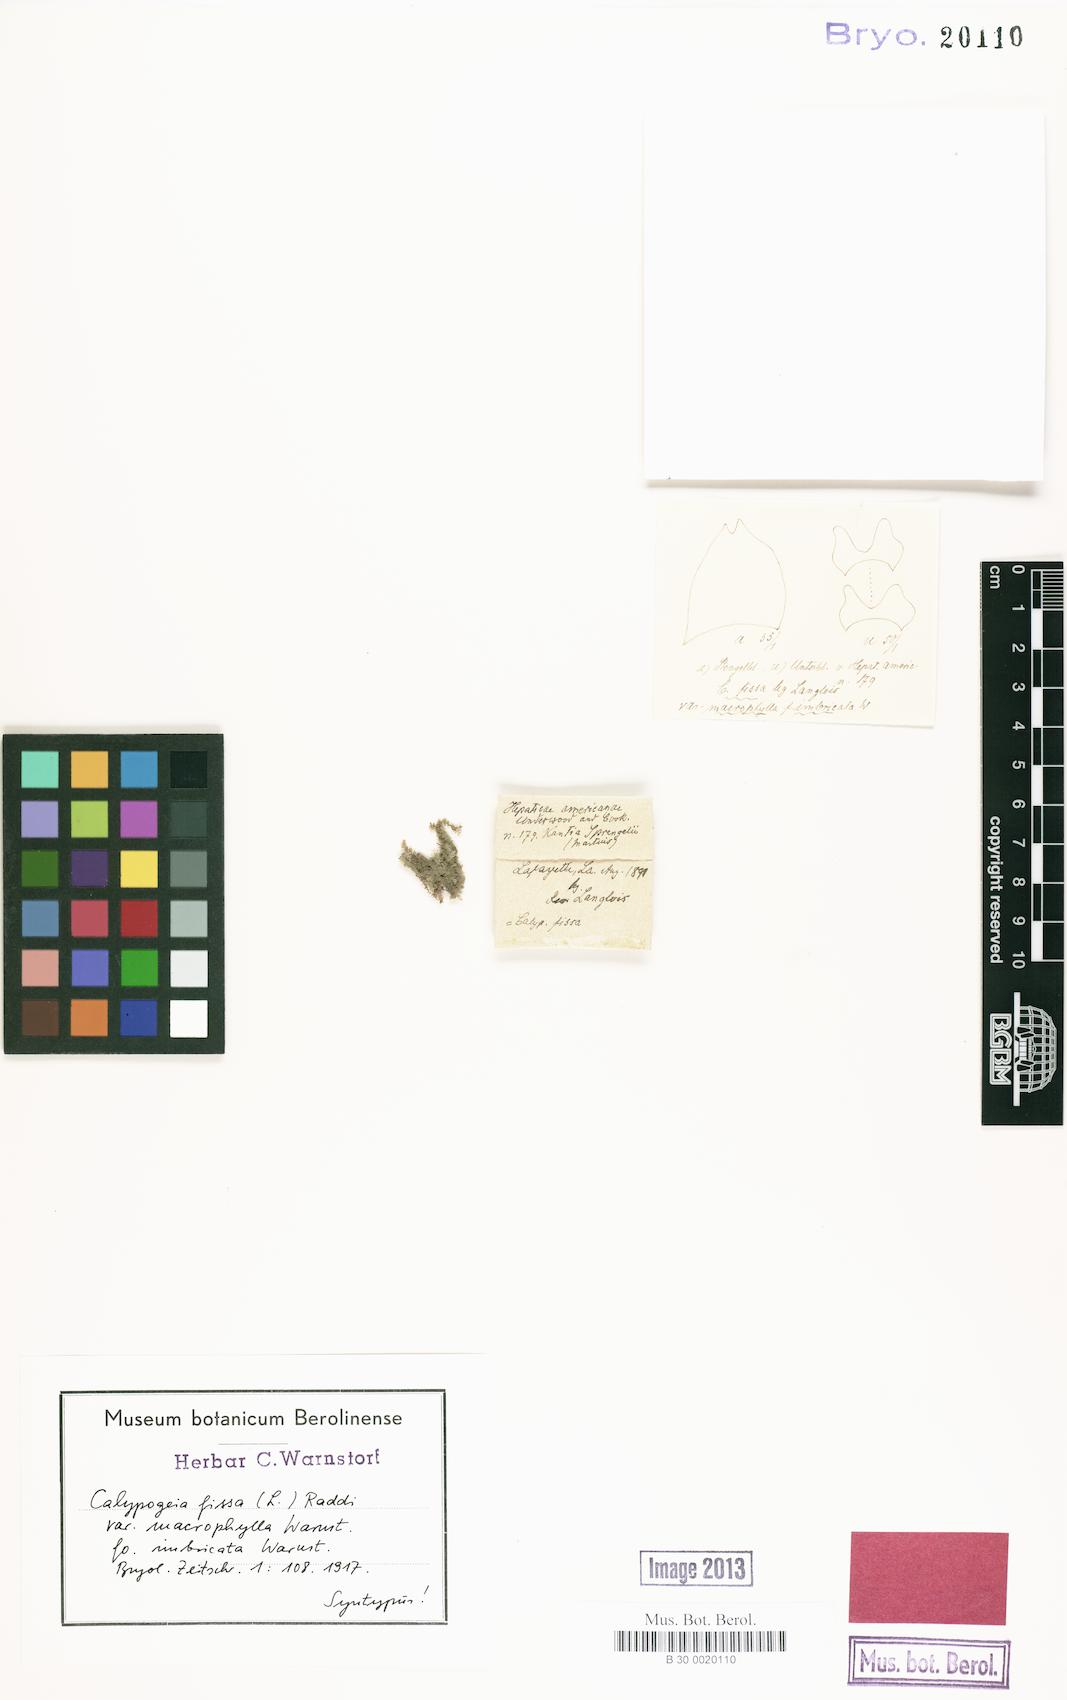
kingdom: Plantae
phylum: Marchantiophyta
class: Jungermanniopsida
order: Jungermanniales
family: Calypogeiaceae
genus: Calypogeia
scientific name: Calypogeia fissa
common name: Common pouchwort
